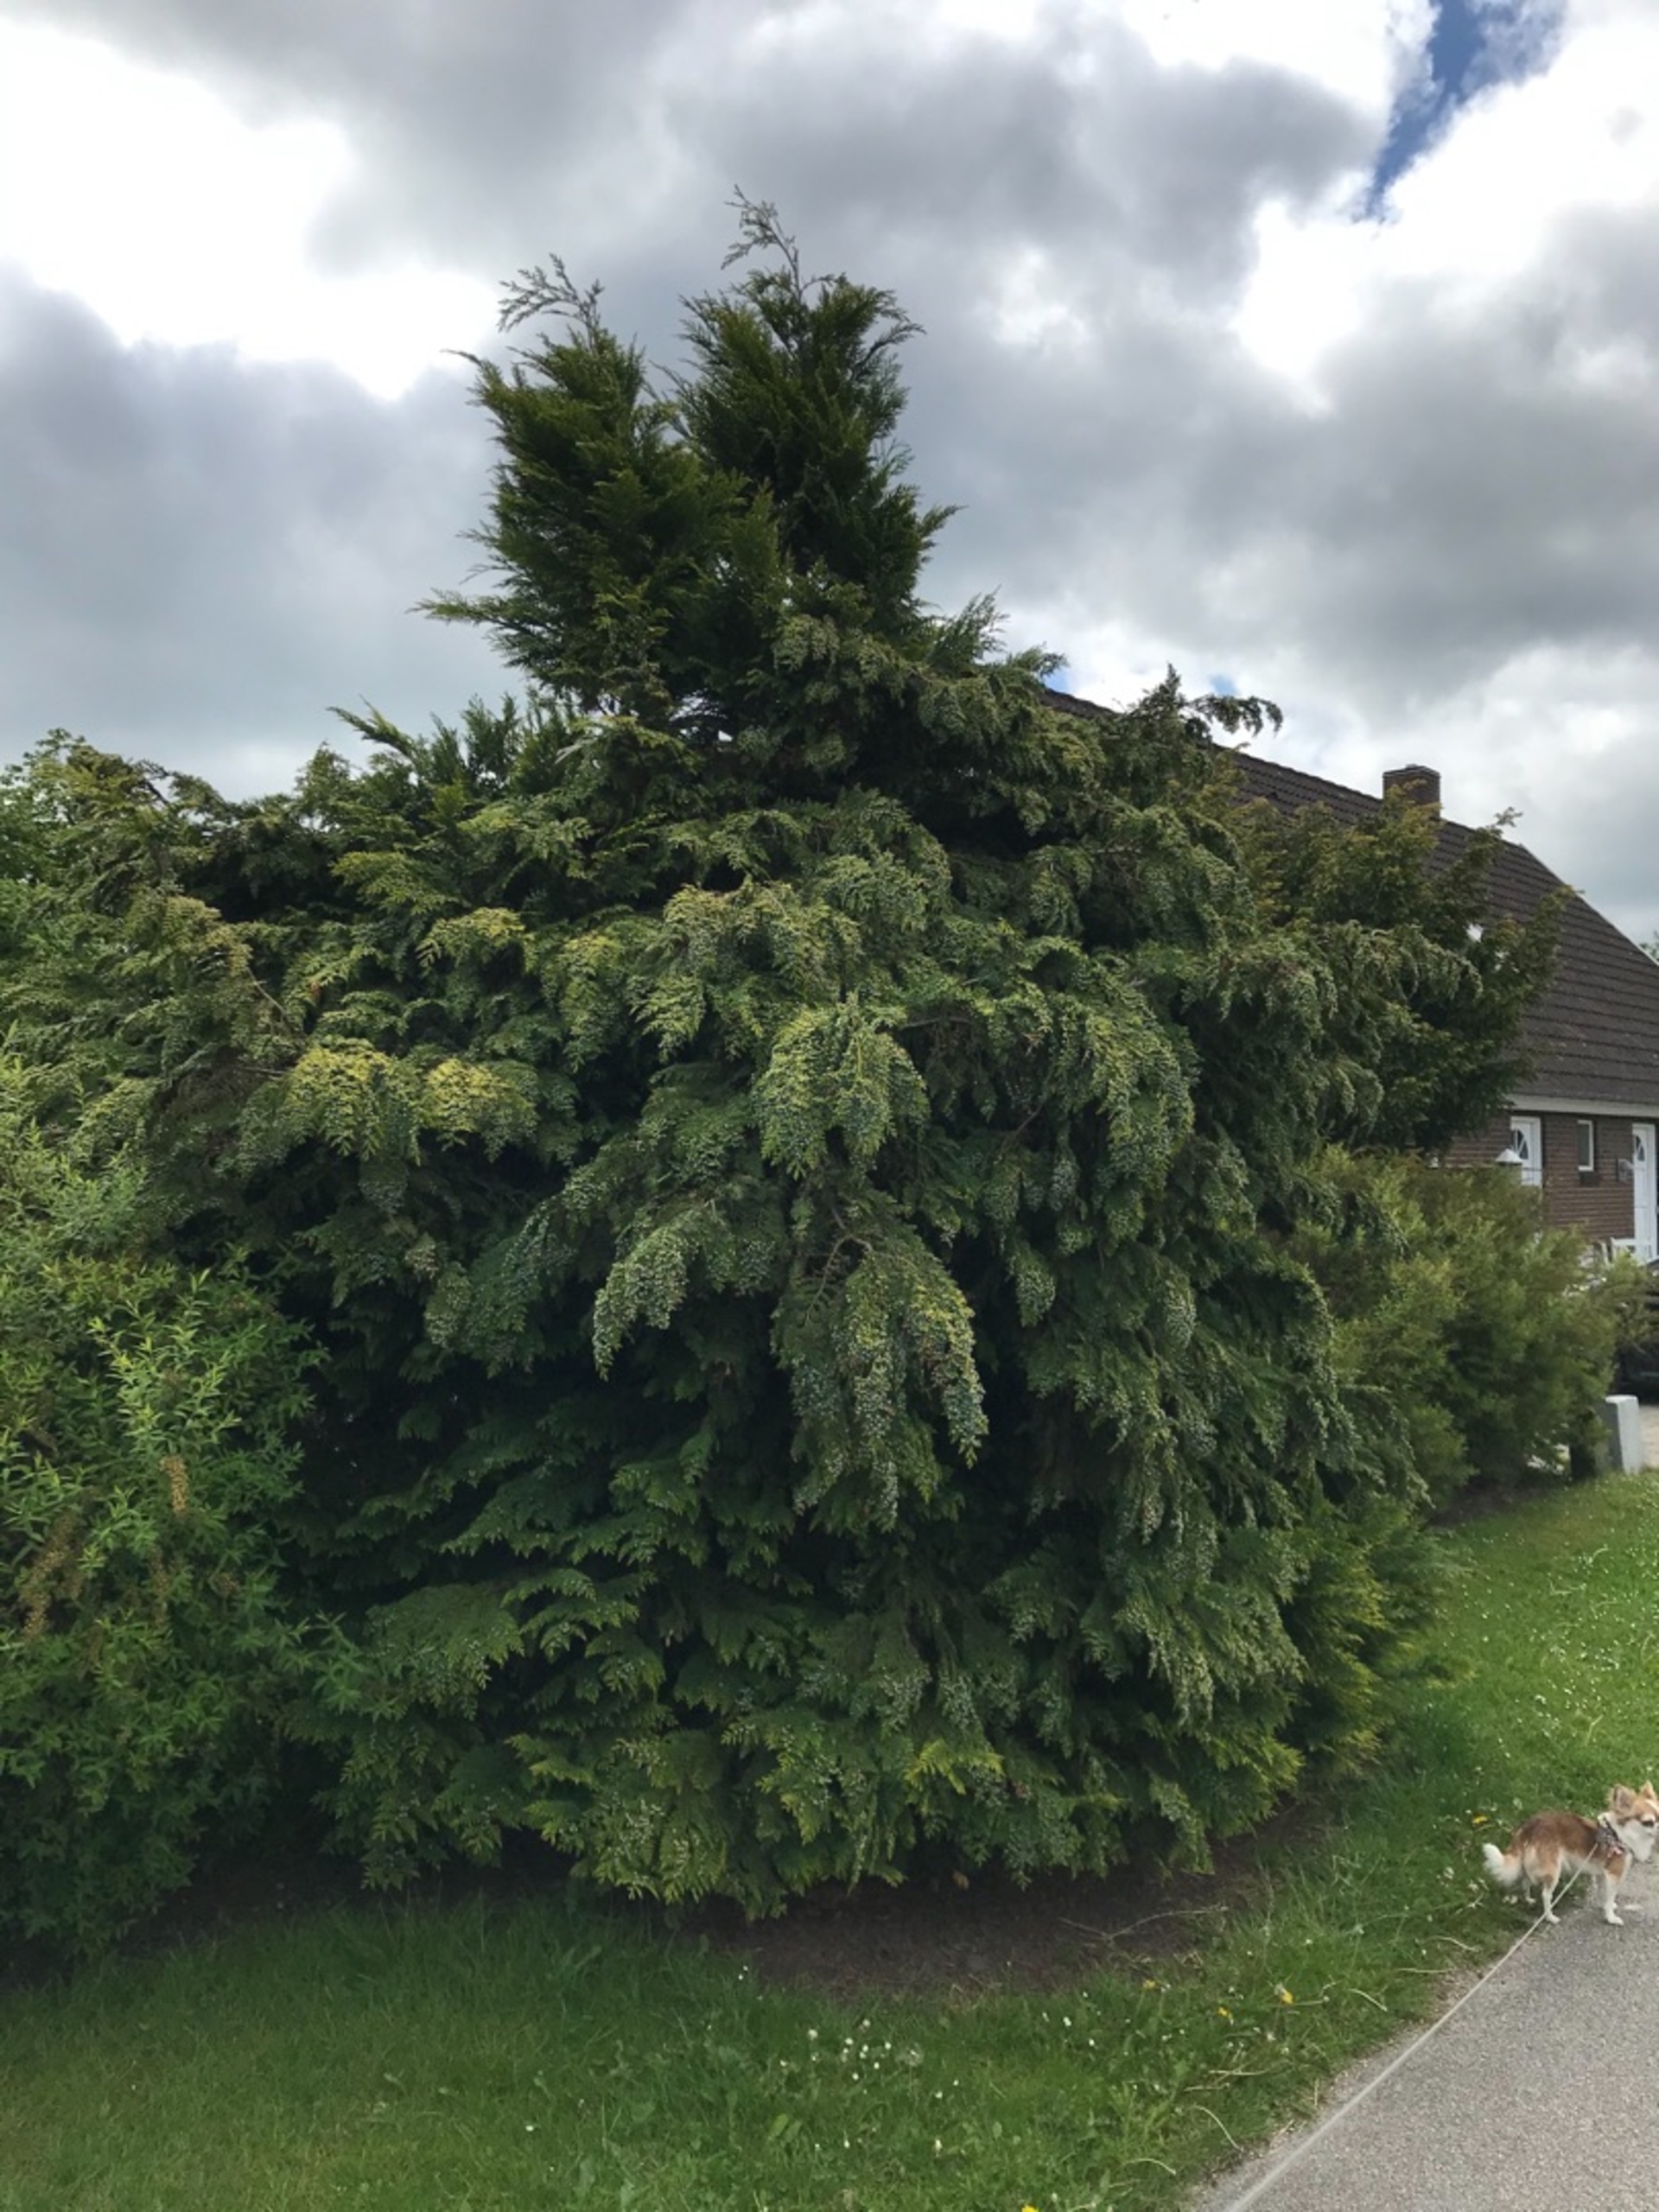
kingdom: Plantae
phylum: Tracheophyta
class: Pinopsida
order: Pinales
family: Cupressaceae
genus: Cupressus
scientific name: Cupressus
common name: Cypresslægten
